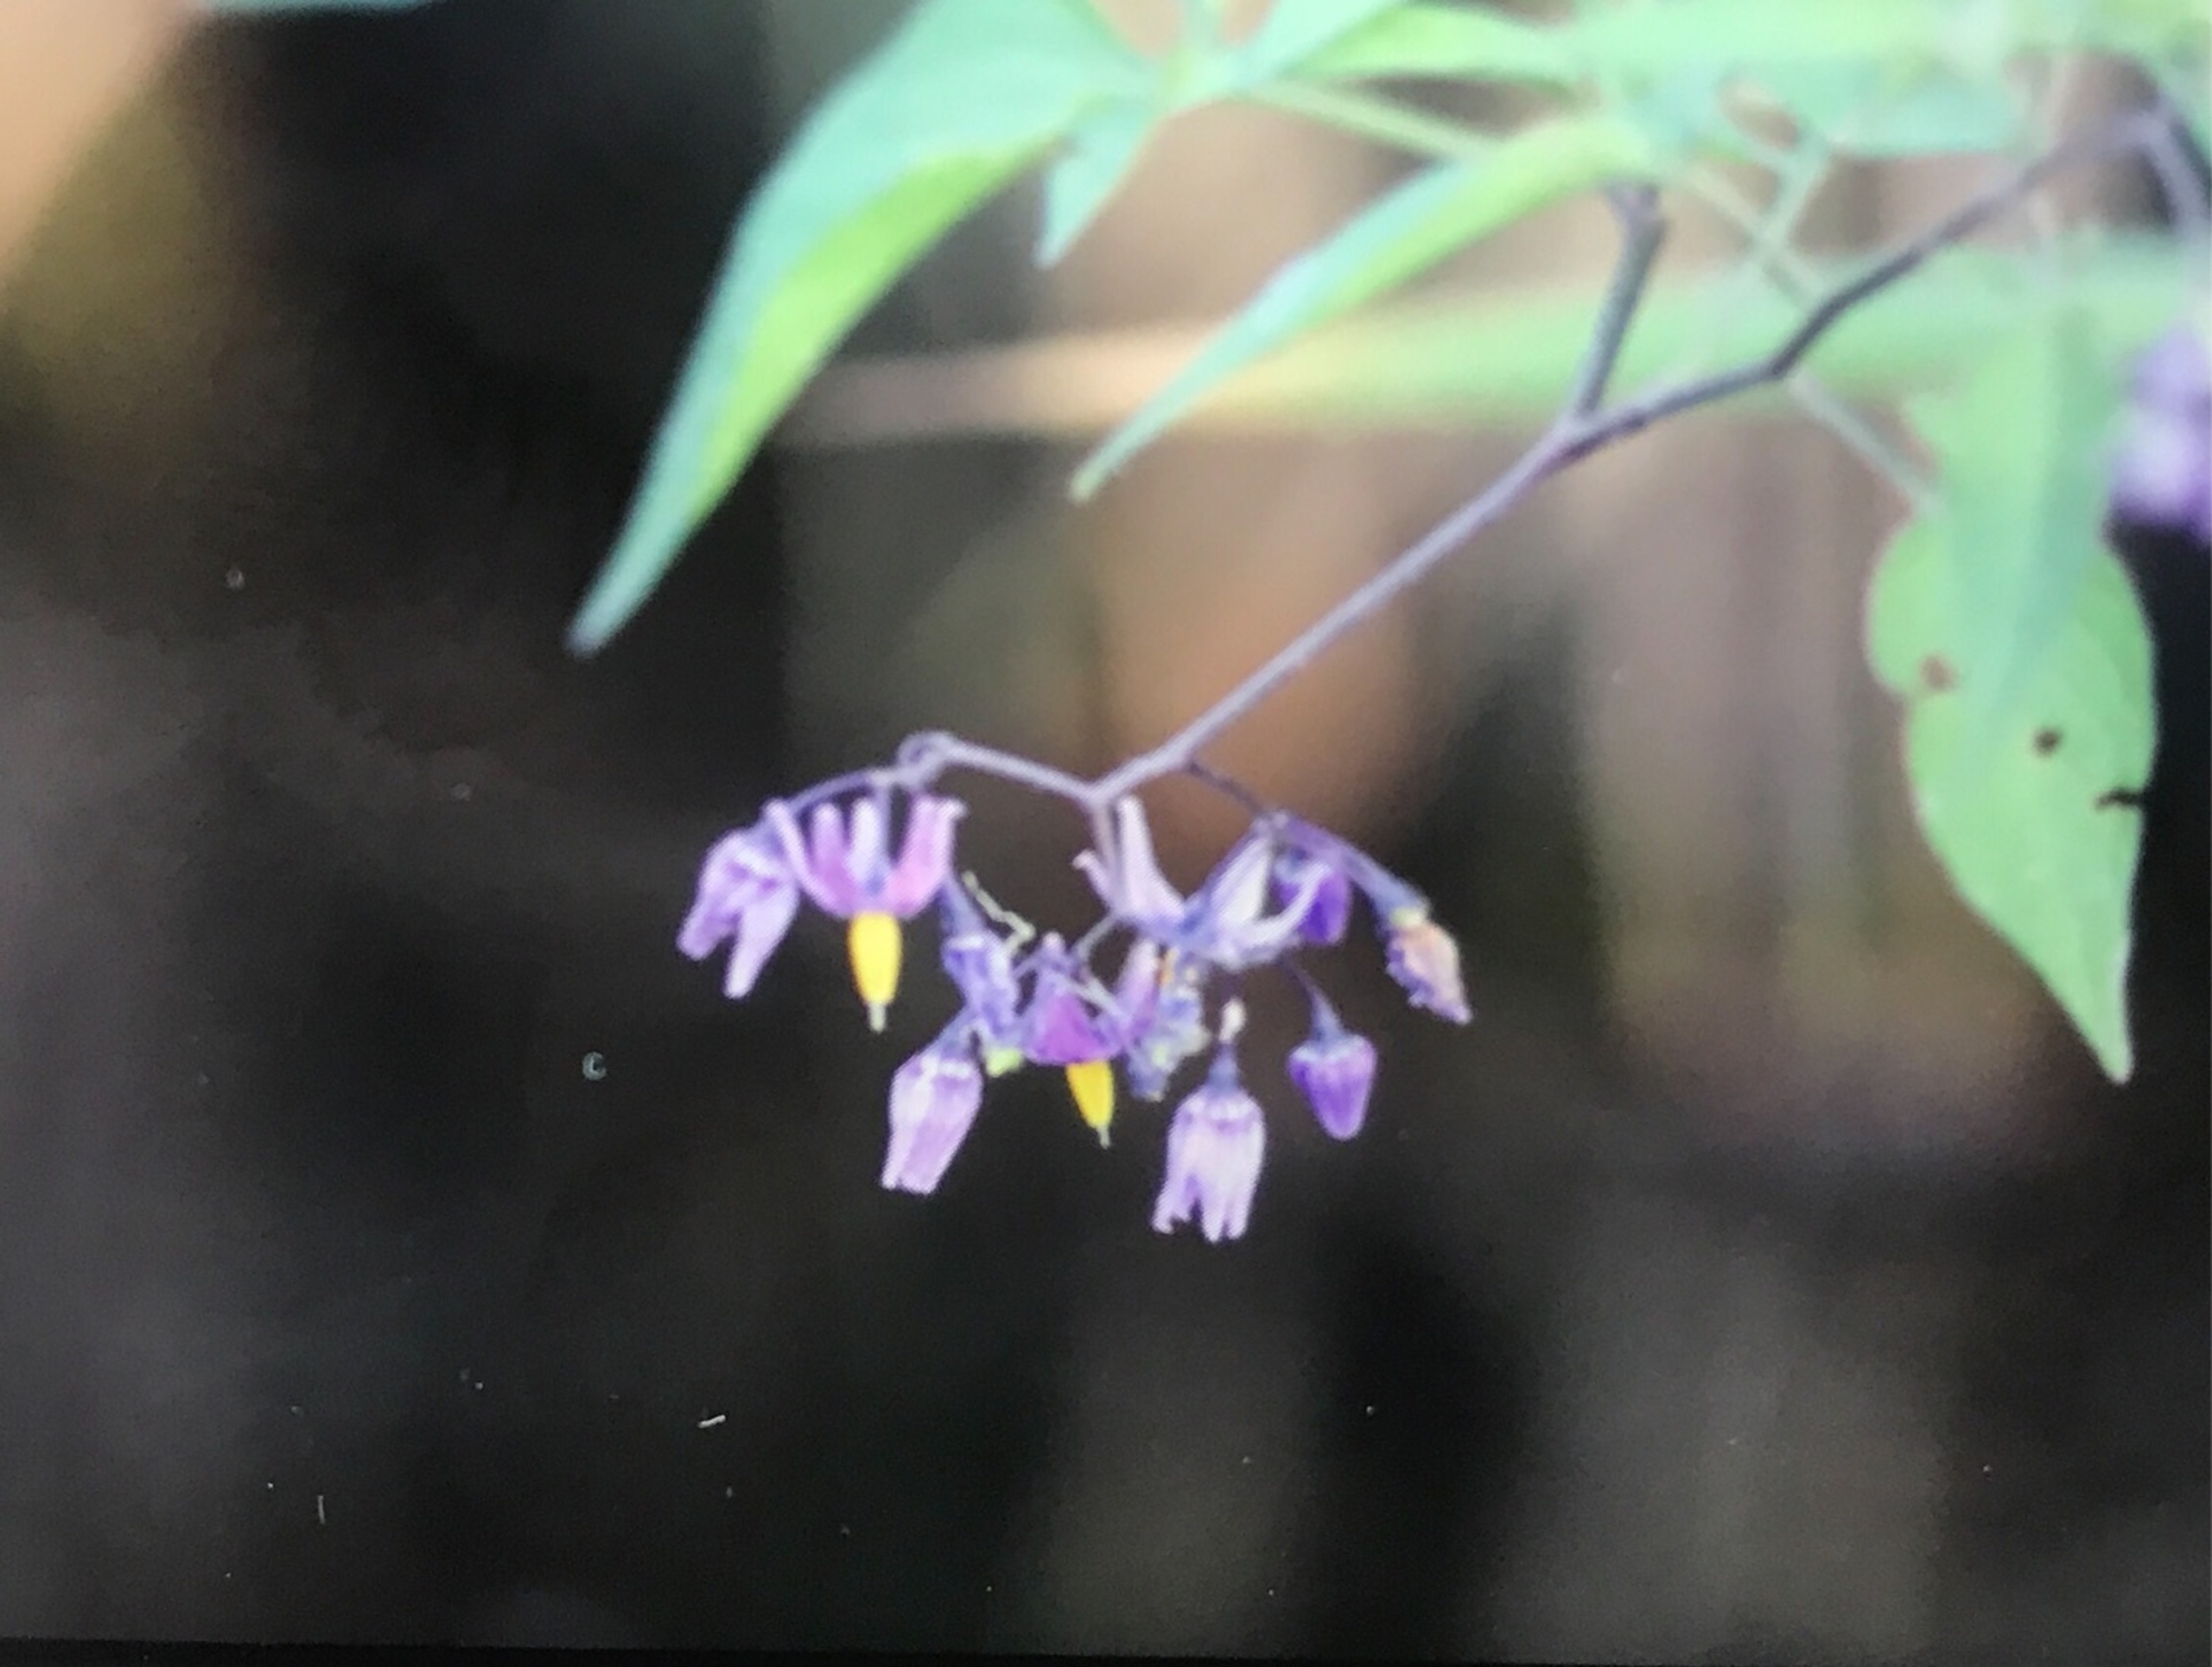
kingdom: Plantae
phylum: Tracheophyta
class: Magnoliopsida
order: Solanales
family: Solanaceae
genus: Solanum
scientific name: Solanum dulcamara
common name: Bittersød natskygge
